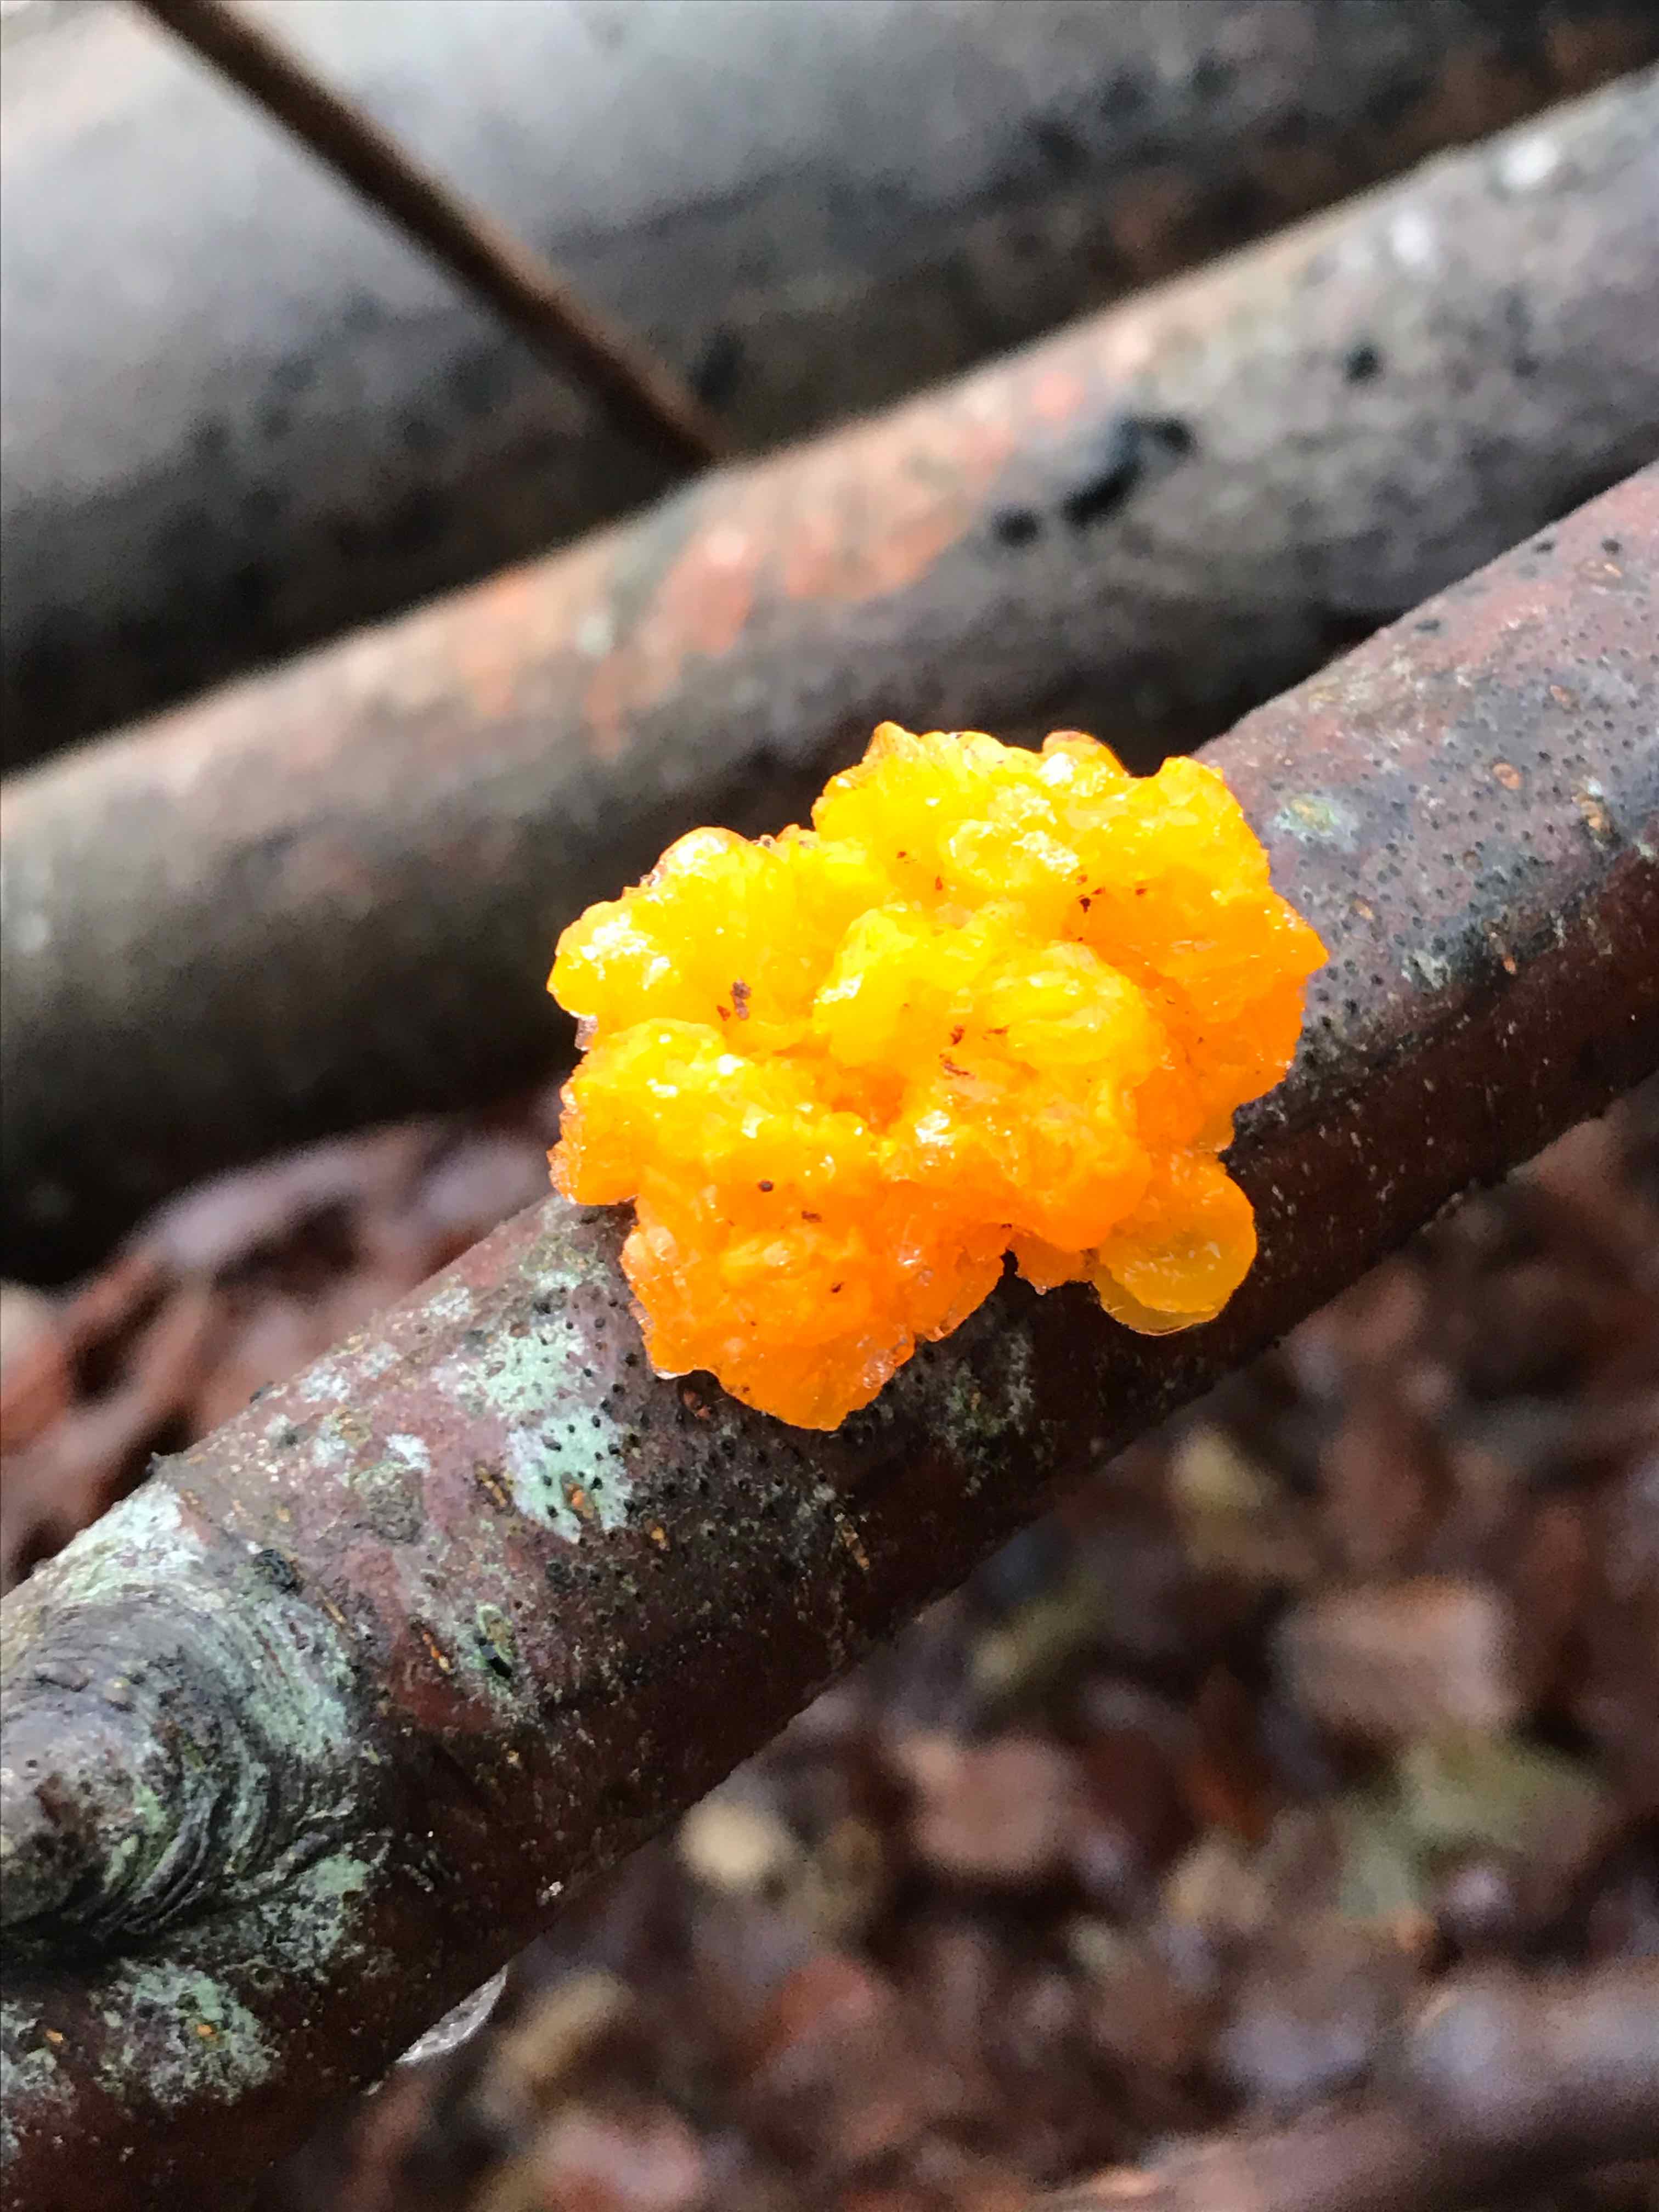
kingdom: Fungi
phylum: Basidiomycota
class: Tremellomycetes
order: Tremellales
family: Tremellaceae
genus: Tremella
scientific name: Tremella mesenterica
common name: gul bævresvamp
